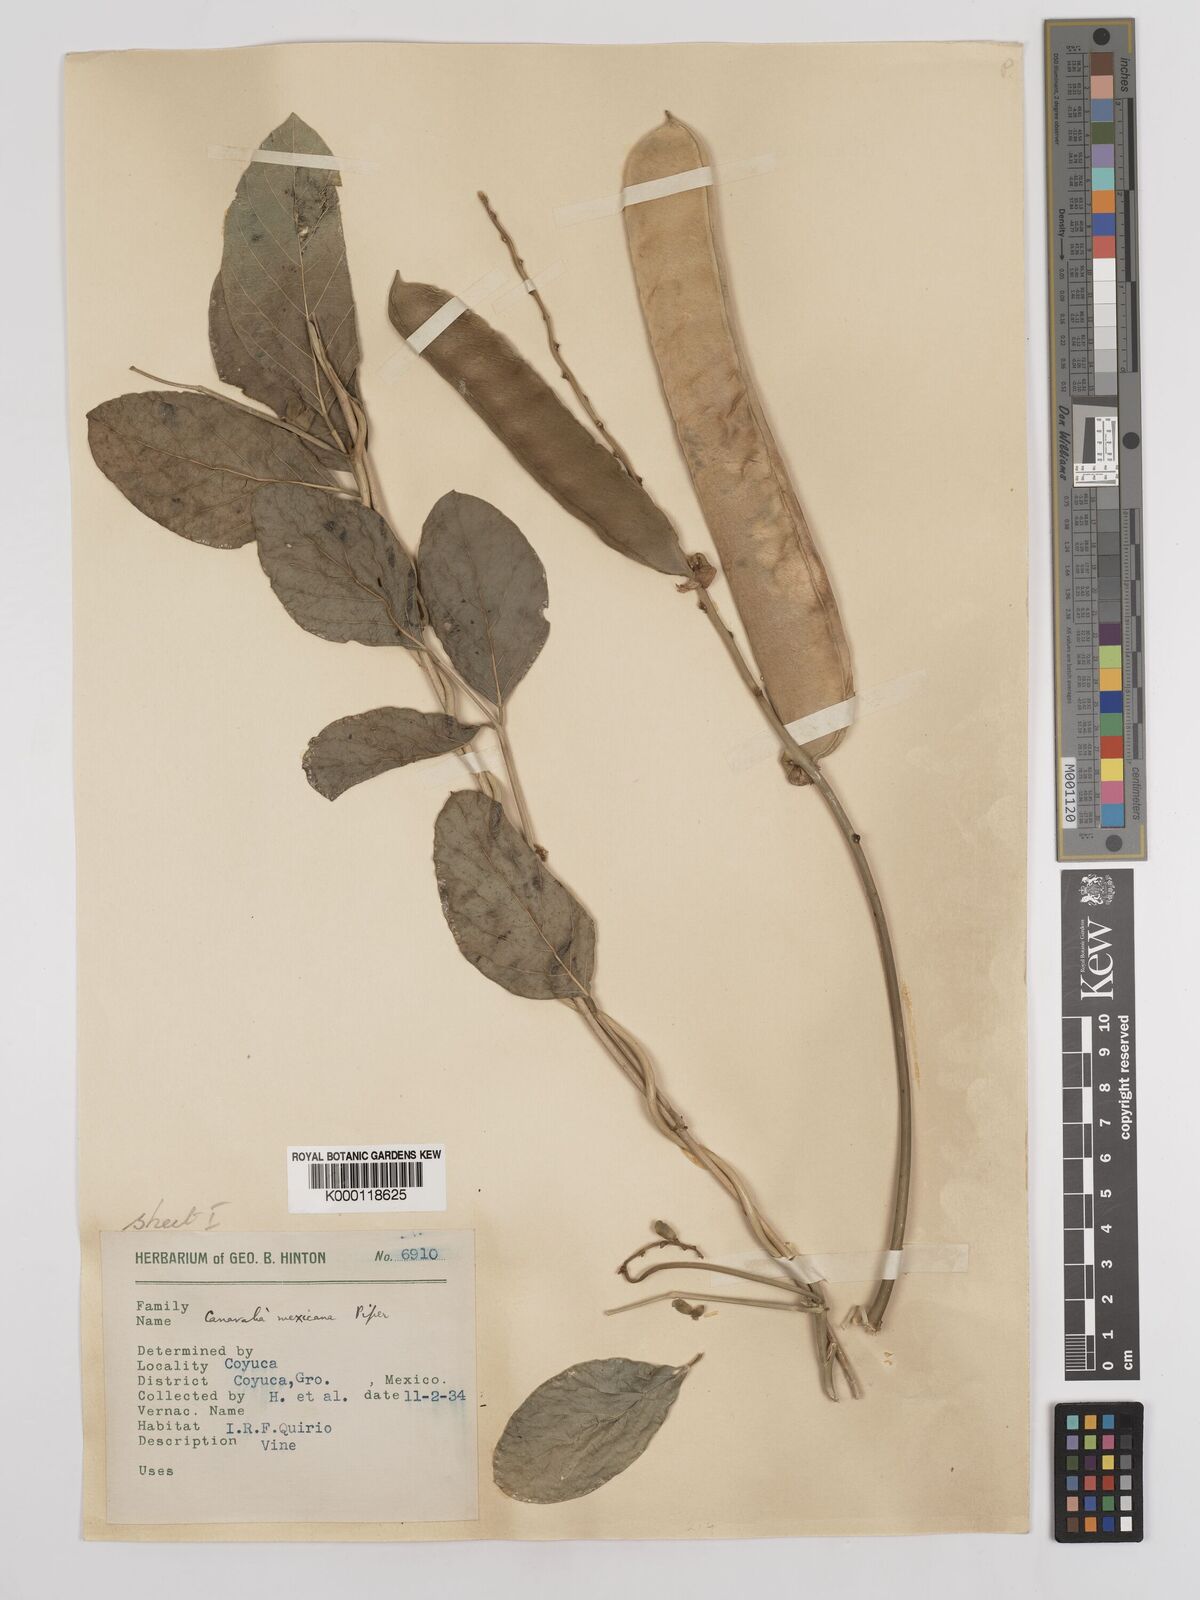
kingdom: Plantae
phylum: Tracheophyta
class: Magnoliopsida
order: Fabales
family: Fabaceae
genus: Canavalia
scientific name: Canavalia brasiliensis
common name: Barbicou-bean
